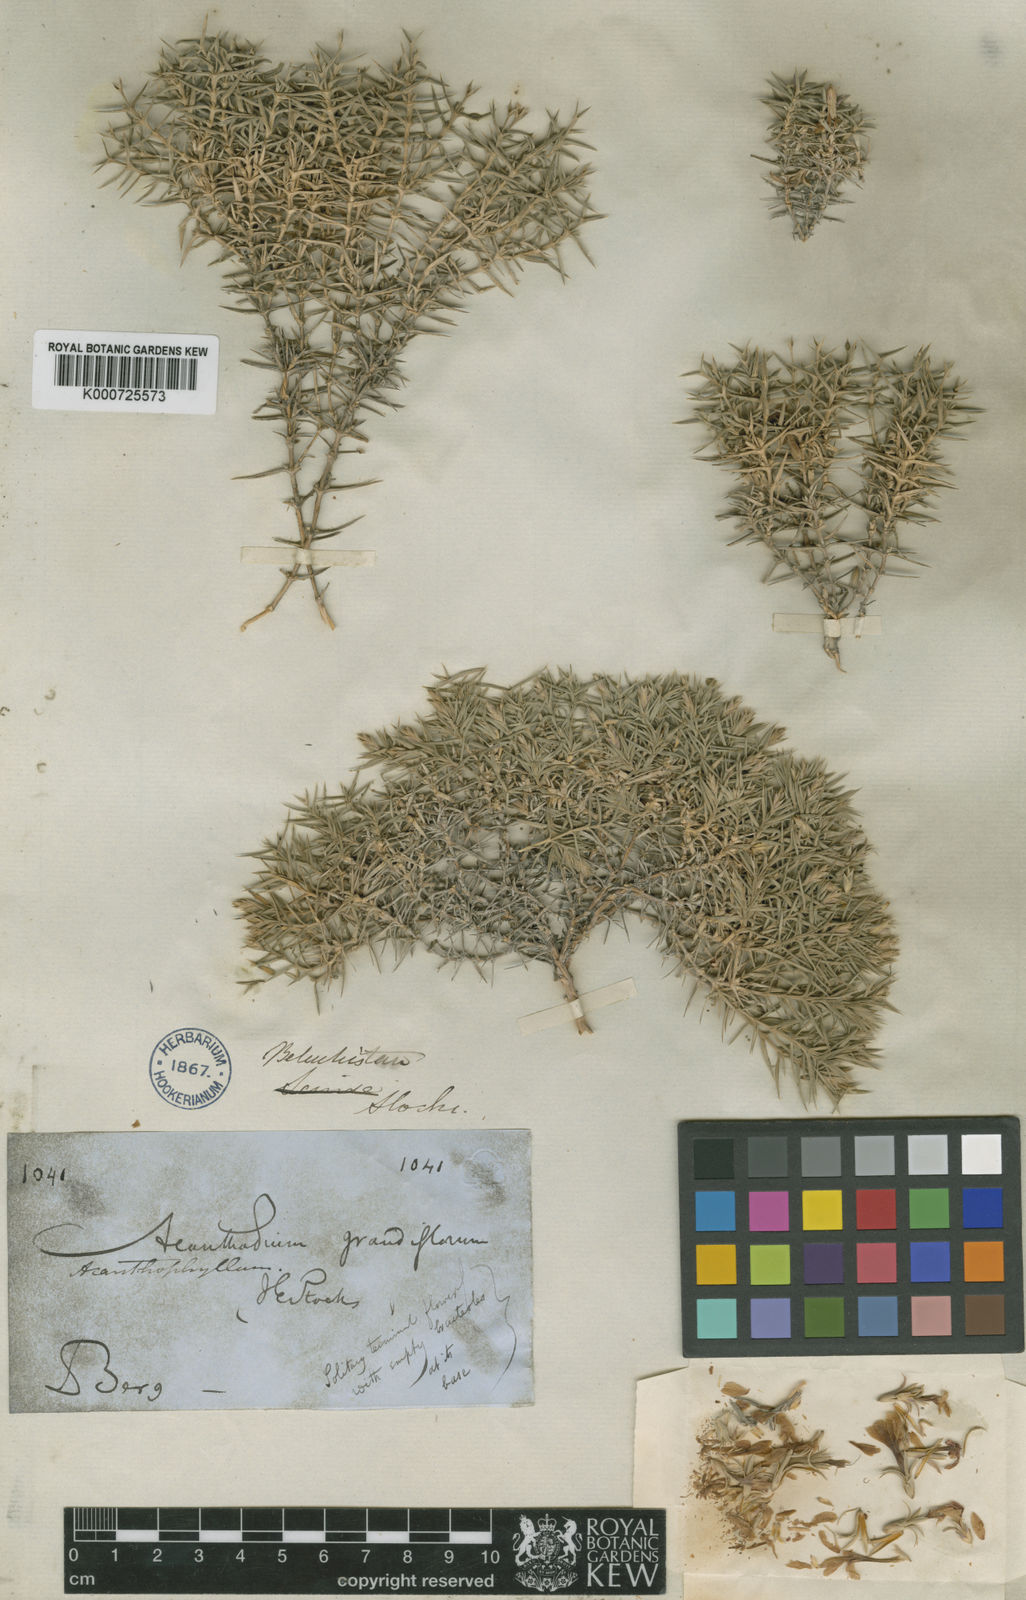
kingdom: Plantae
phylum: Tracheophyta
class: Magnoliopsida
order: Caryophyllales
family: Caryophyllaceae
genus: Acanthophyllum
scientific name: Acanthophyllum grandiflorum
